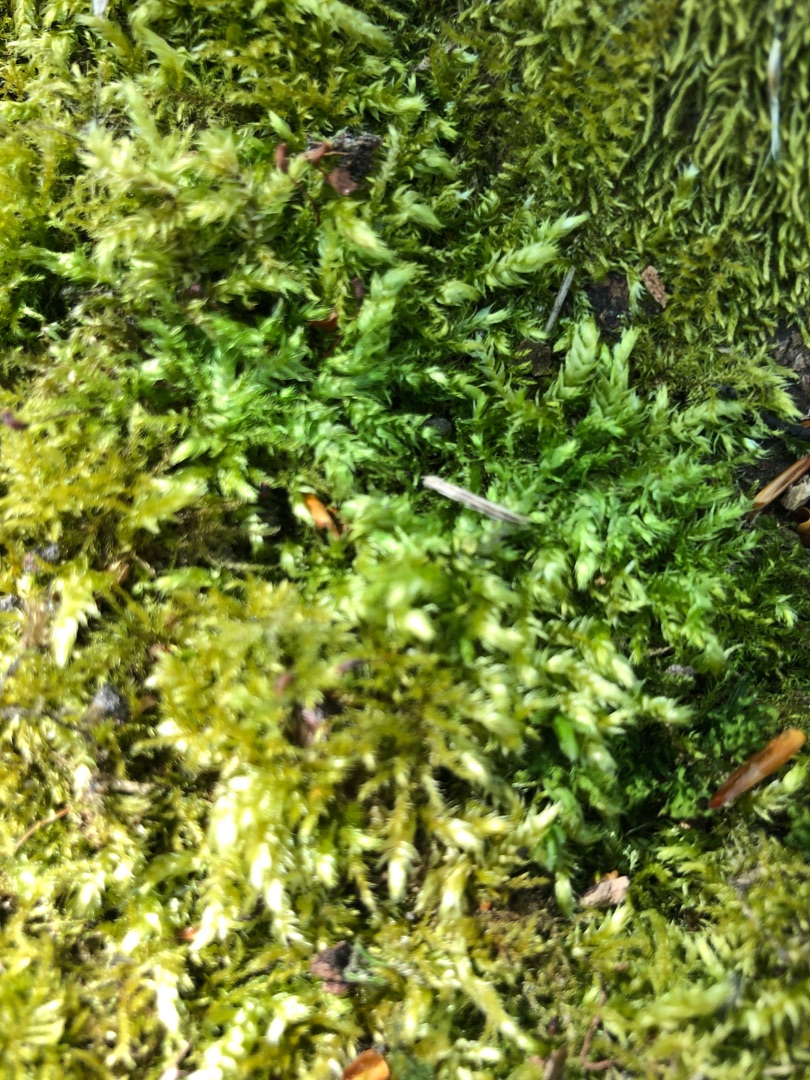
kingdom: Plantae
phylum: Bryophyta
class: Bryopsida
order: Hypnales
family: Brachytheciaceae
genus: Brachythecium
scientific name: Brachythecium rutabulum
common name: Almindelig kortkapsel
